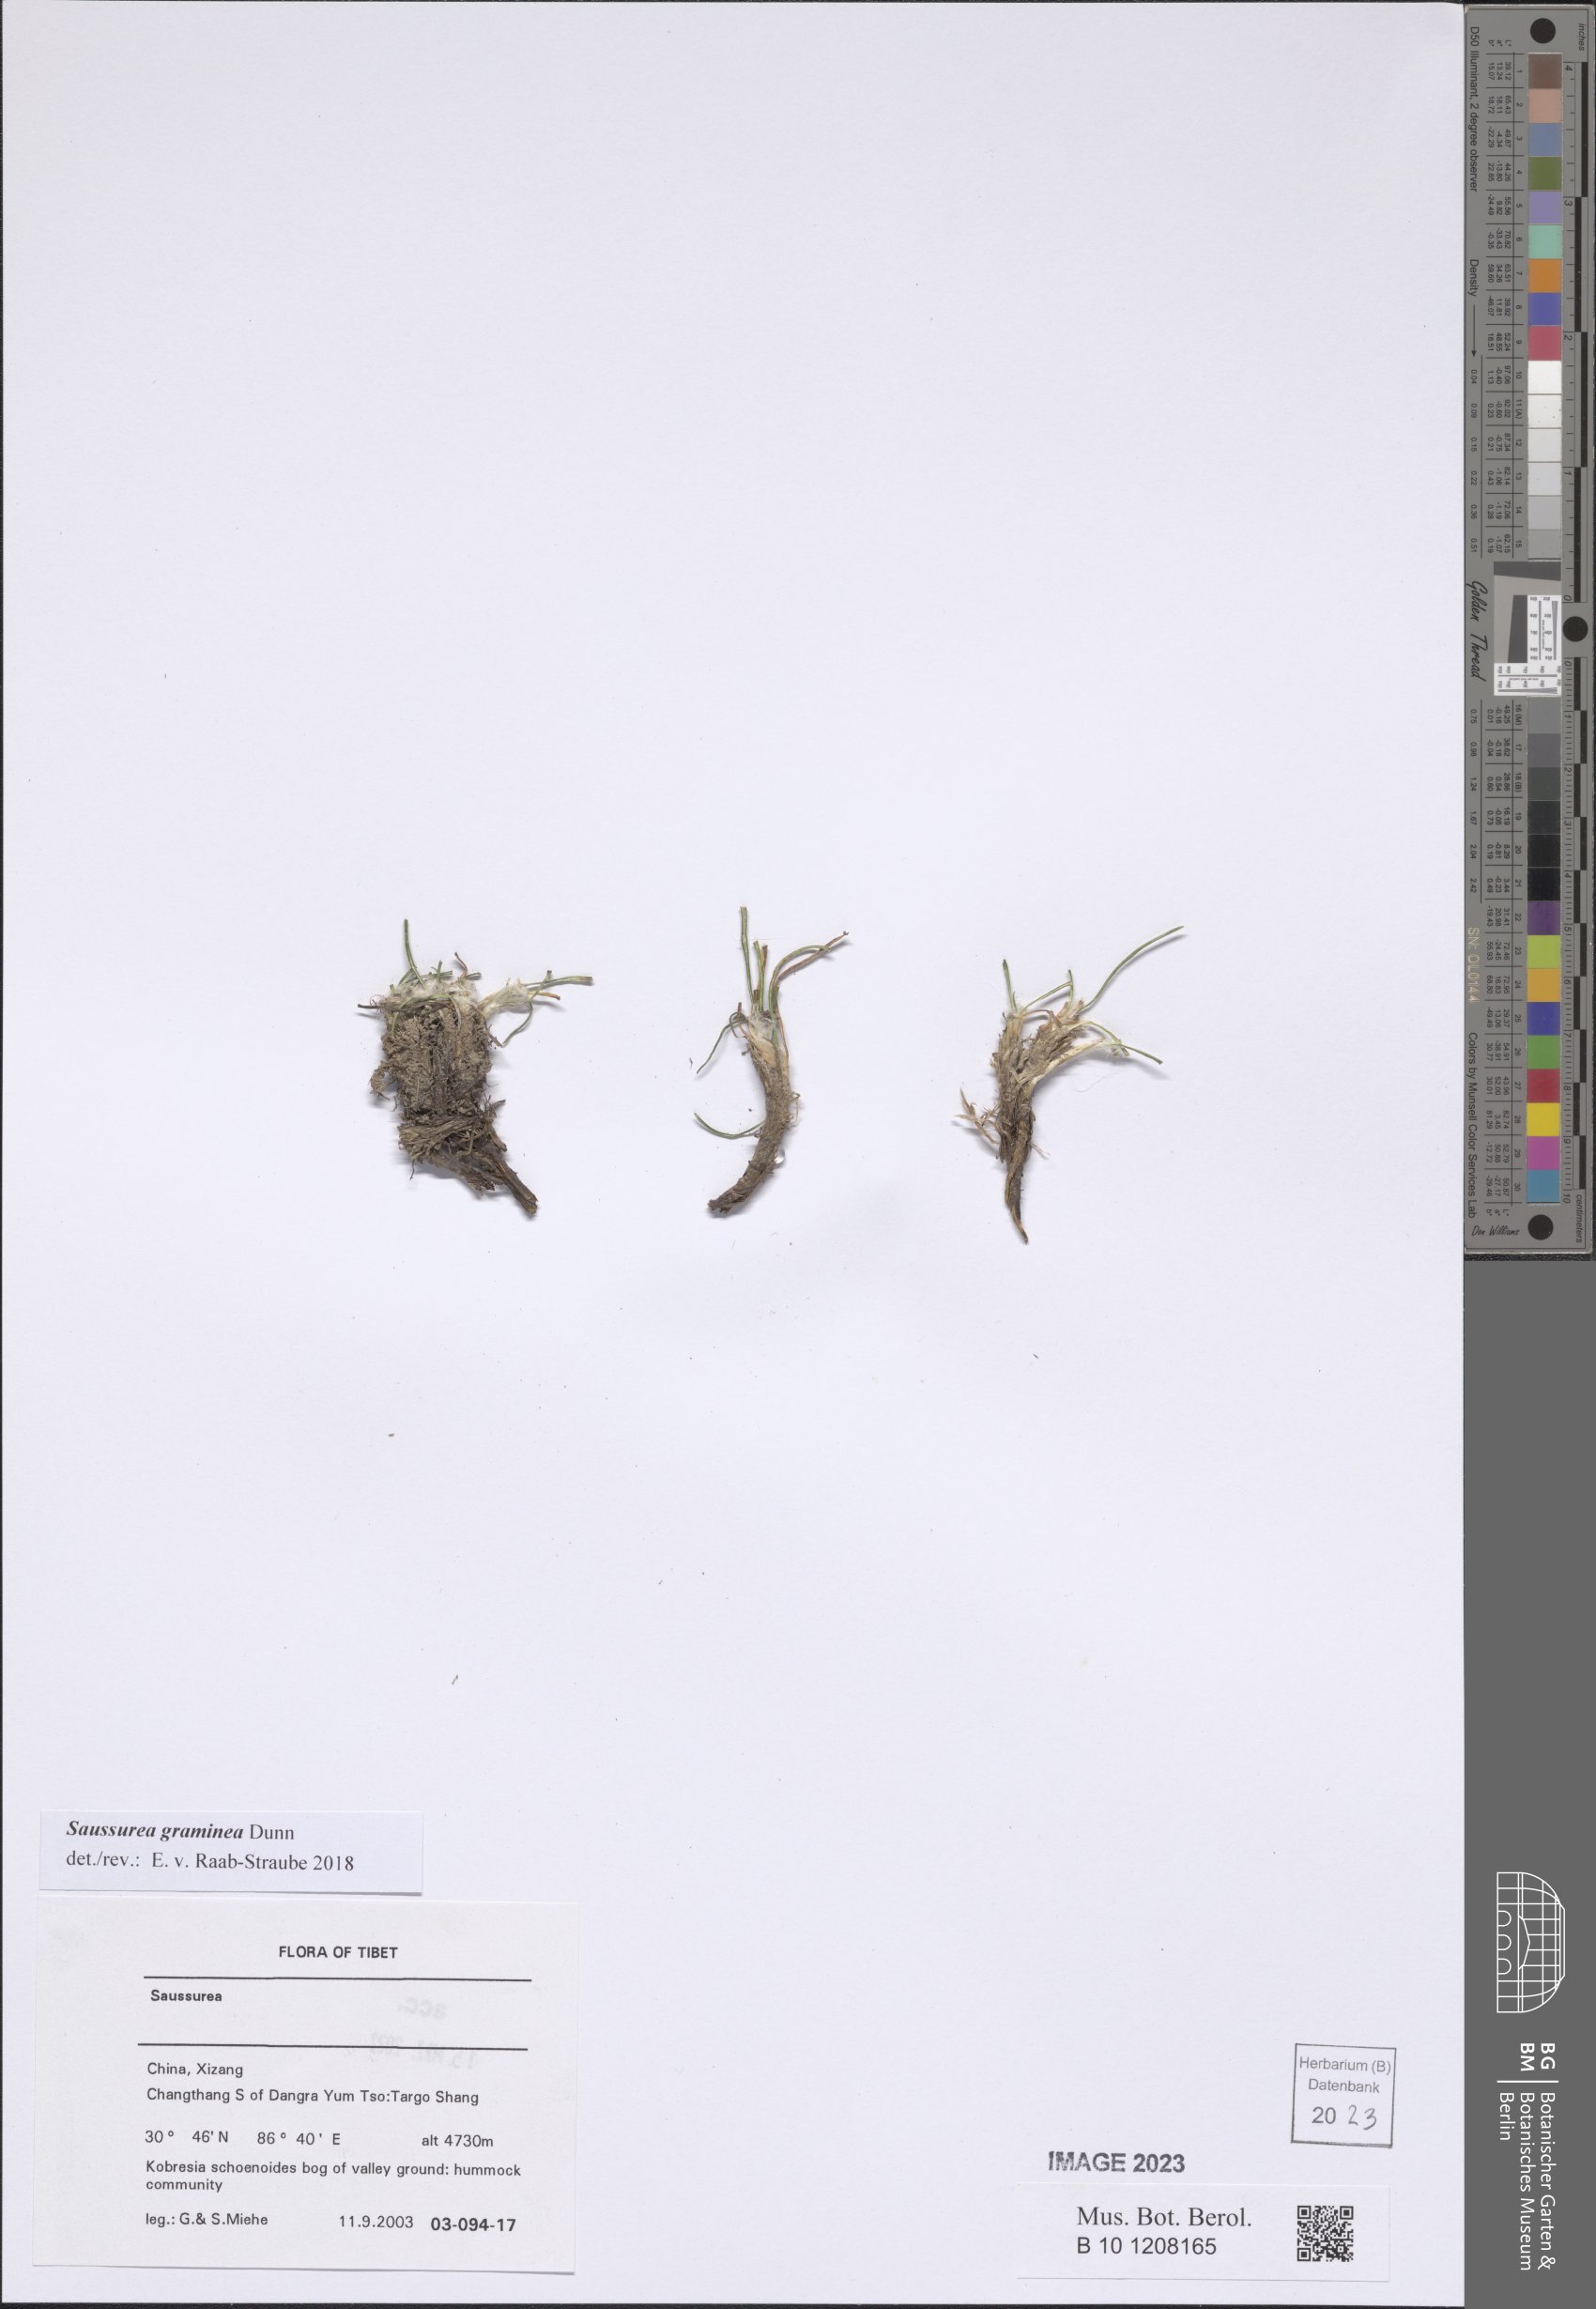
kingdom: Plantae
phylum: Tracheophyta
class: Magnoliopsida
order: Asterales
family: Asteraceae
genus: Saussurea
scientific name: Saussurea graminea
